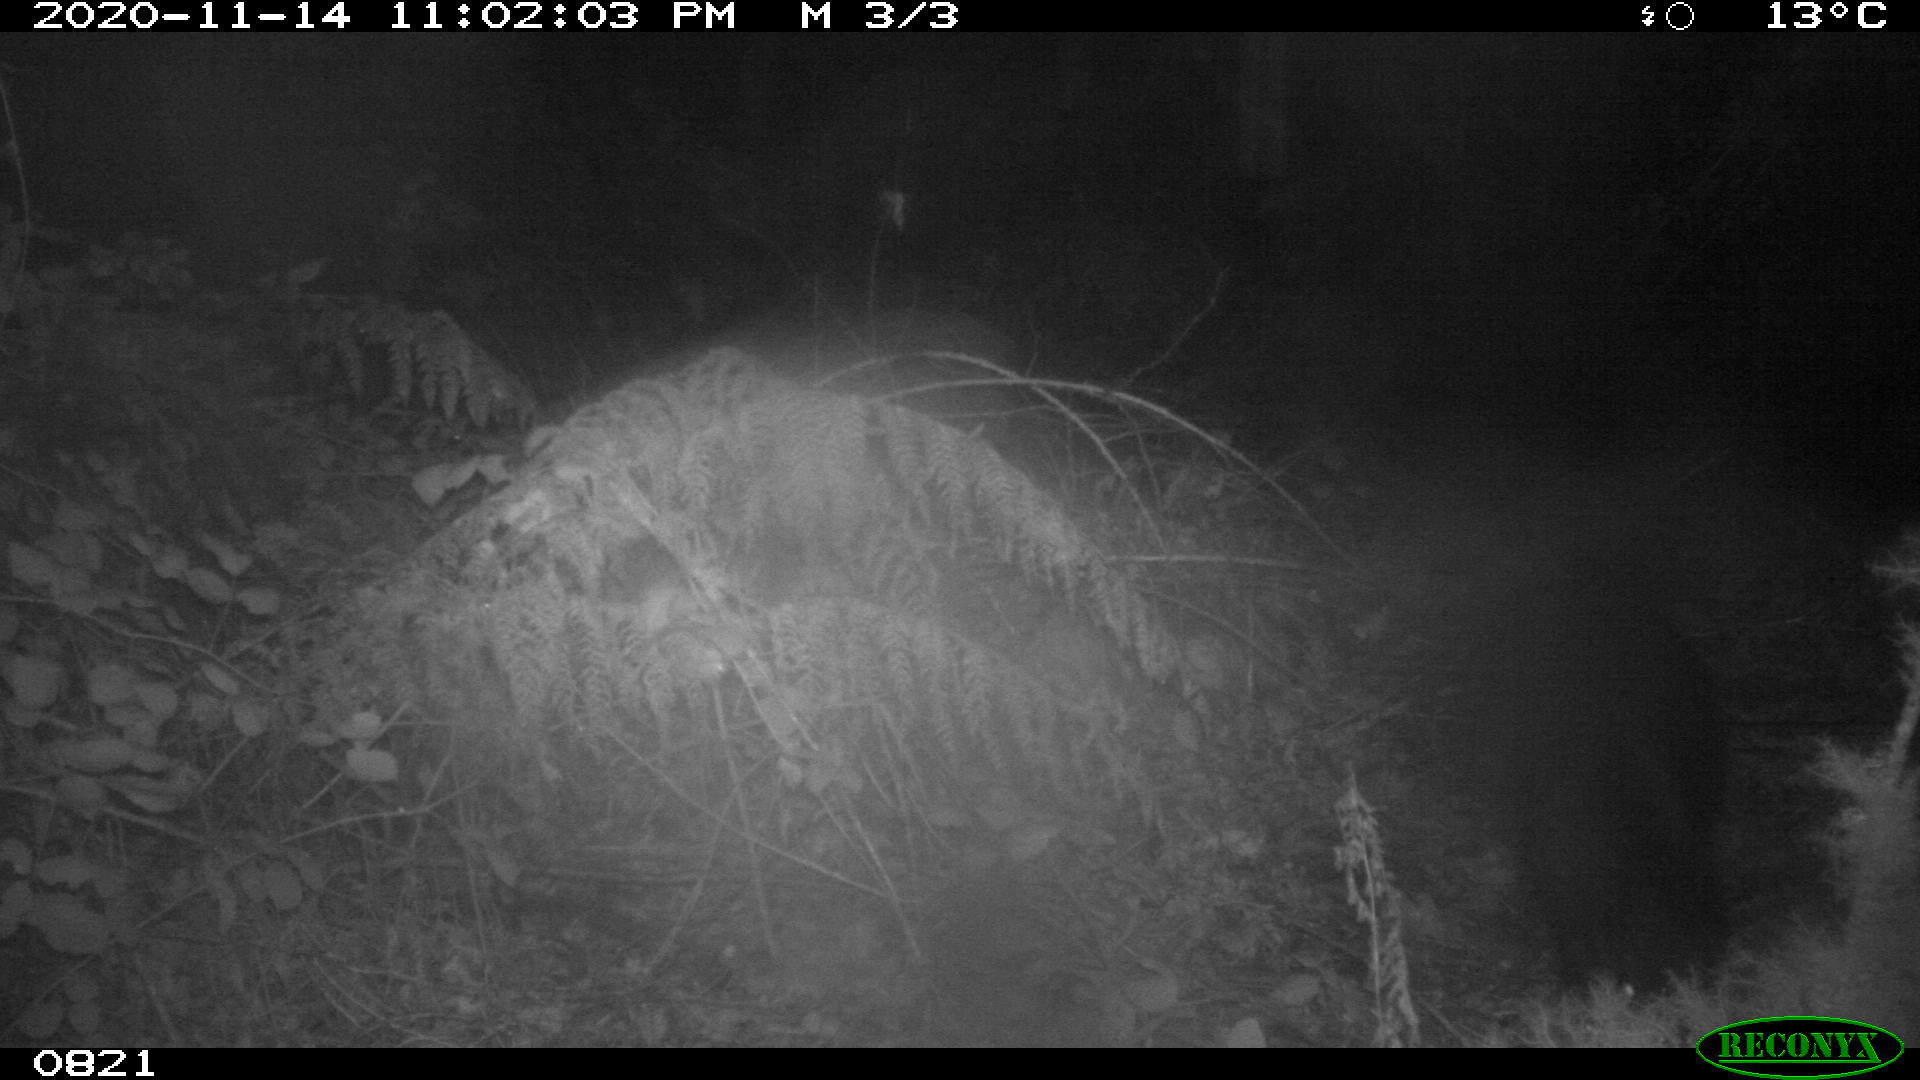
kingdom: Animalia
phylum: Chordata
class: Mammalia
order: Artiodactyla
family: Suidae
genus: Sus
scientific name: Sus scrofa
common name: Wild boar
